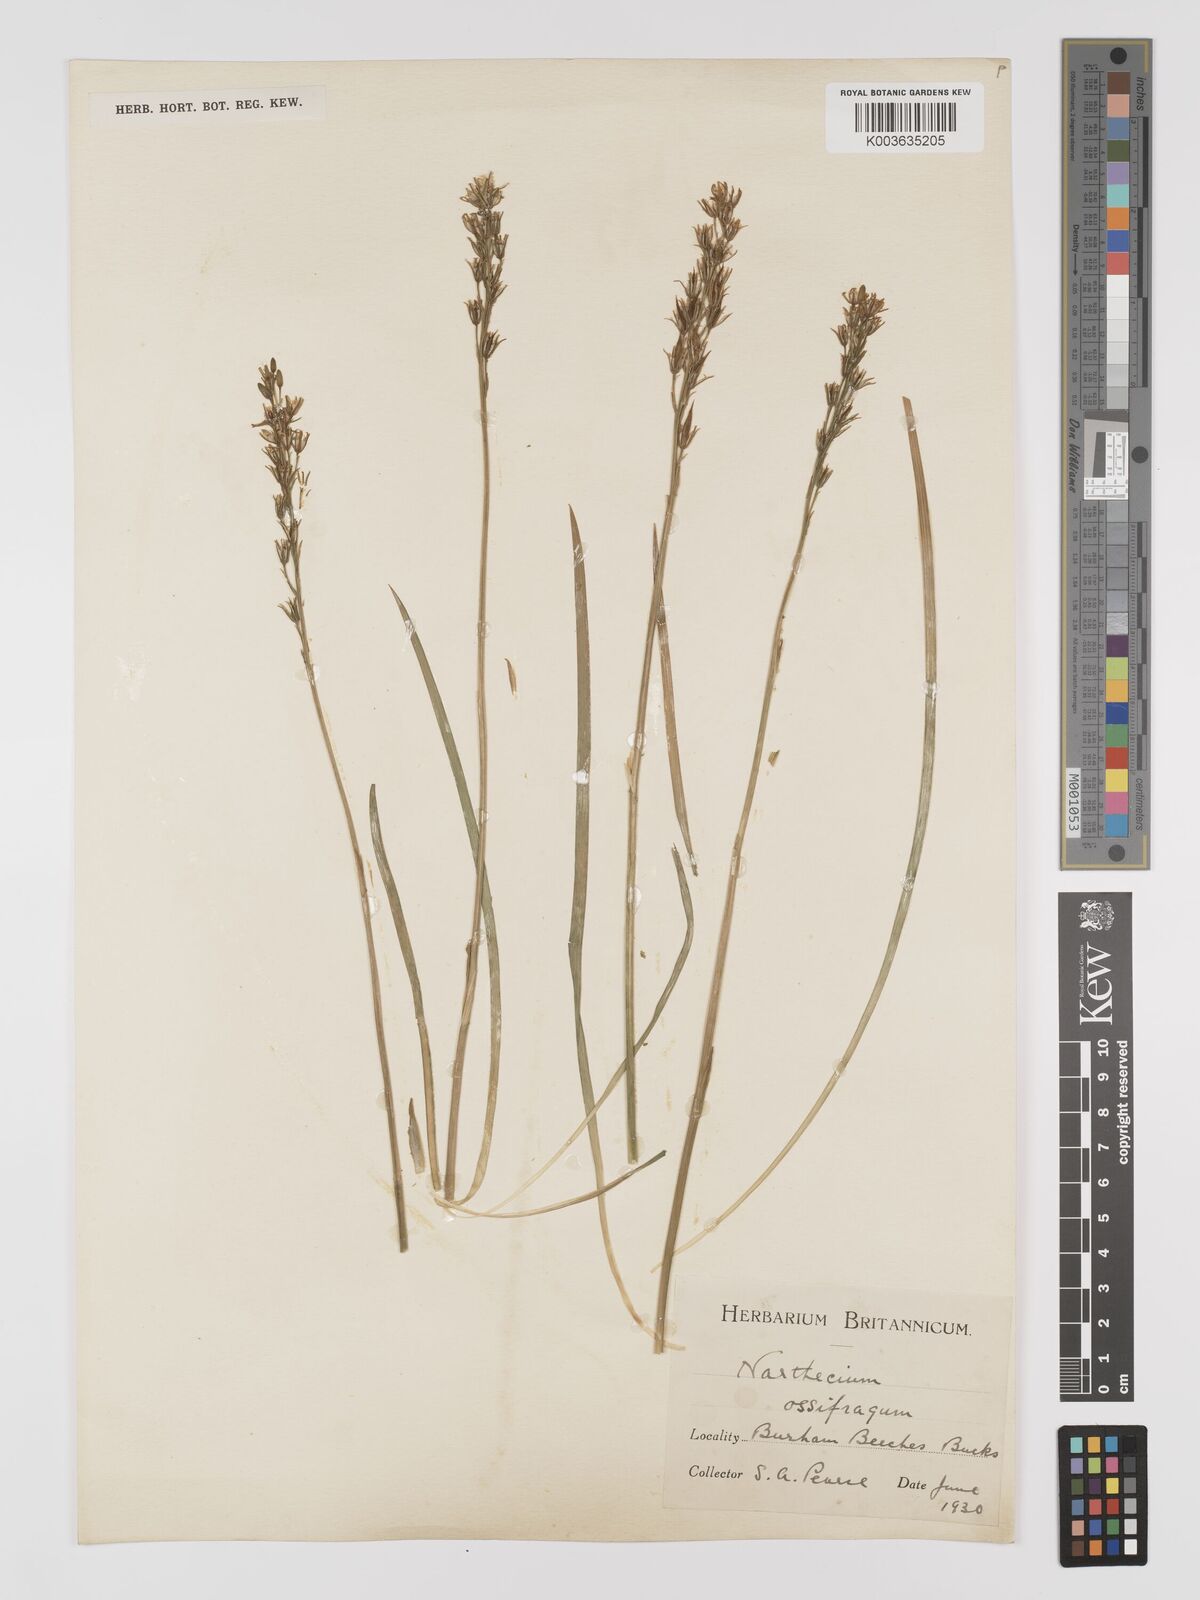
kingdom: Plantae
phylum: Tracheophyta
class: Liliopsida
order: Dioscoreales
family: Nartheciaceae
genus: Narthecium
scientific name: Narthecium
